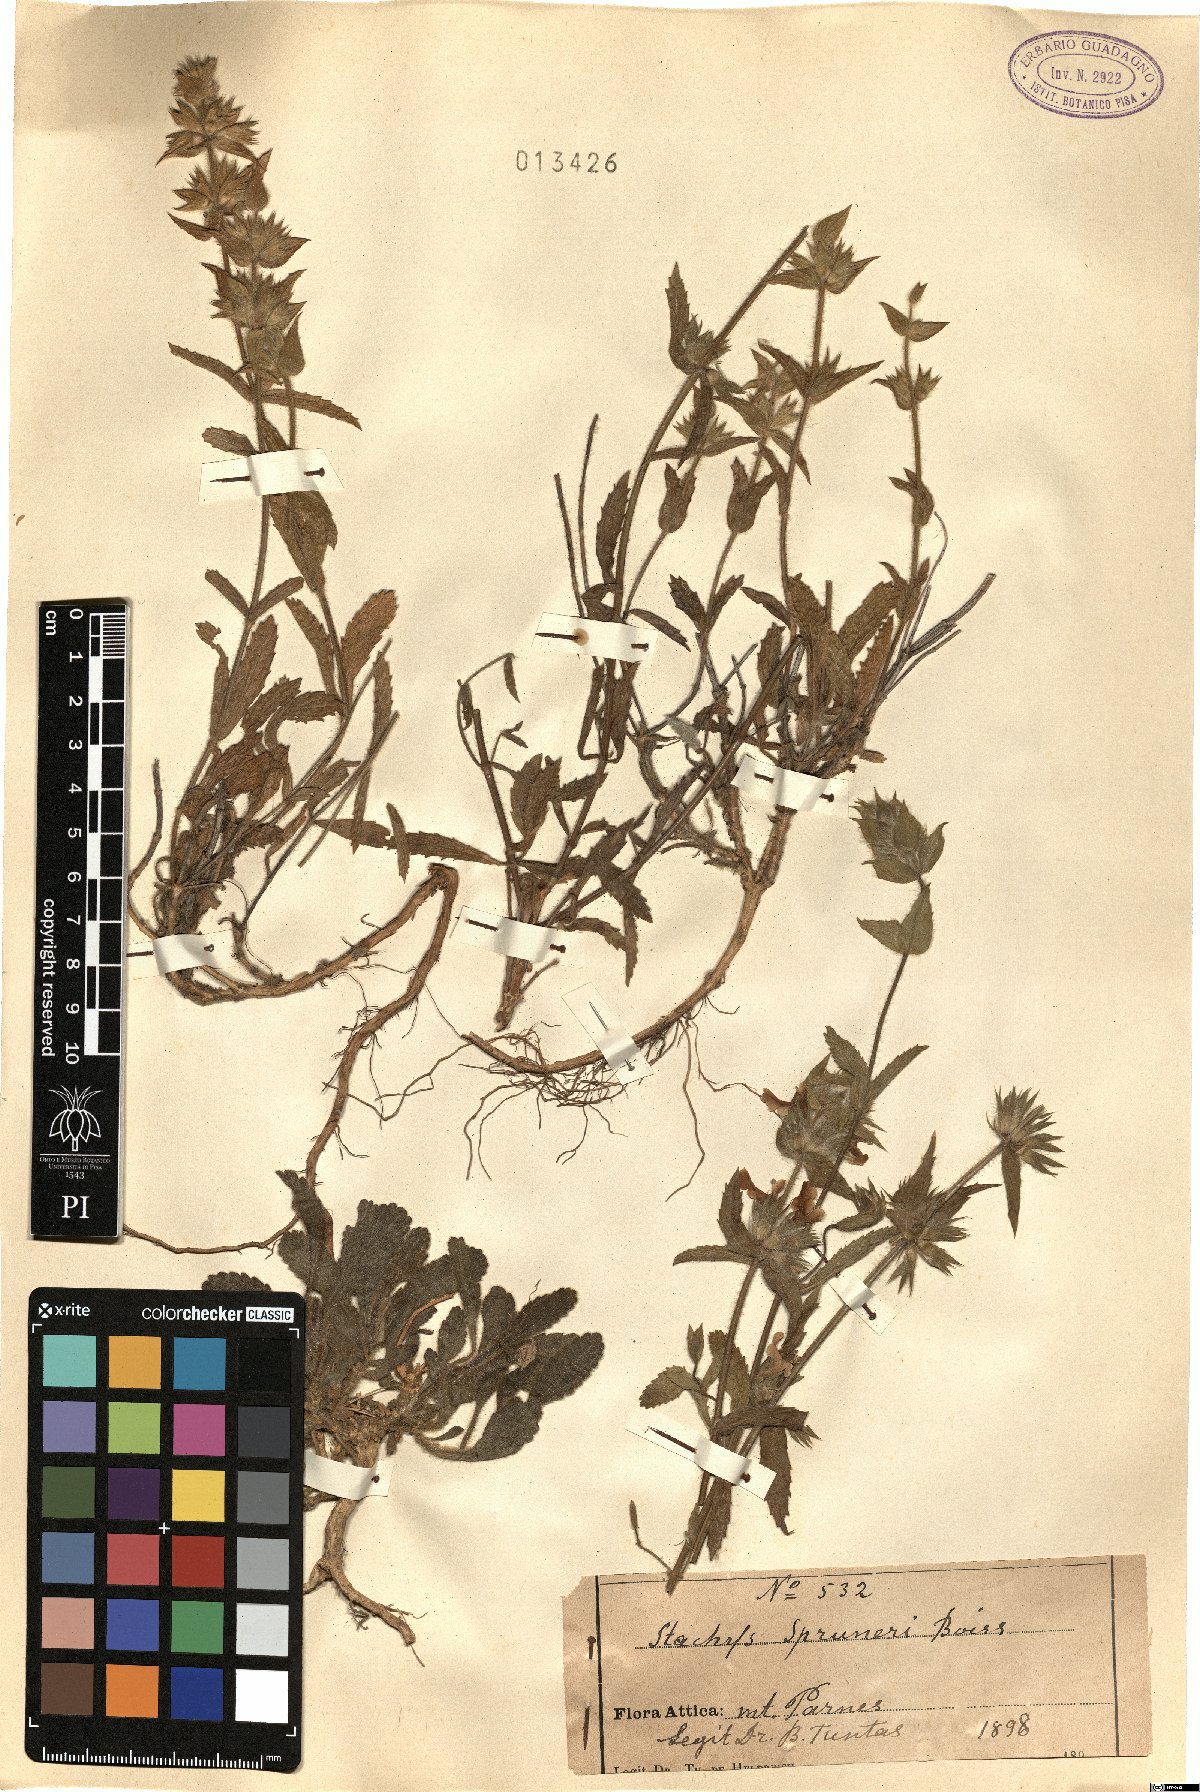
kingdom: Plantae
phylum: Tracheophyta
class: Magnoliopsida
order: Lamiales
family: Lamiaceae
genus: Stachys
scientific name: Stachys spruneri
